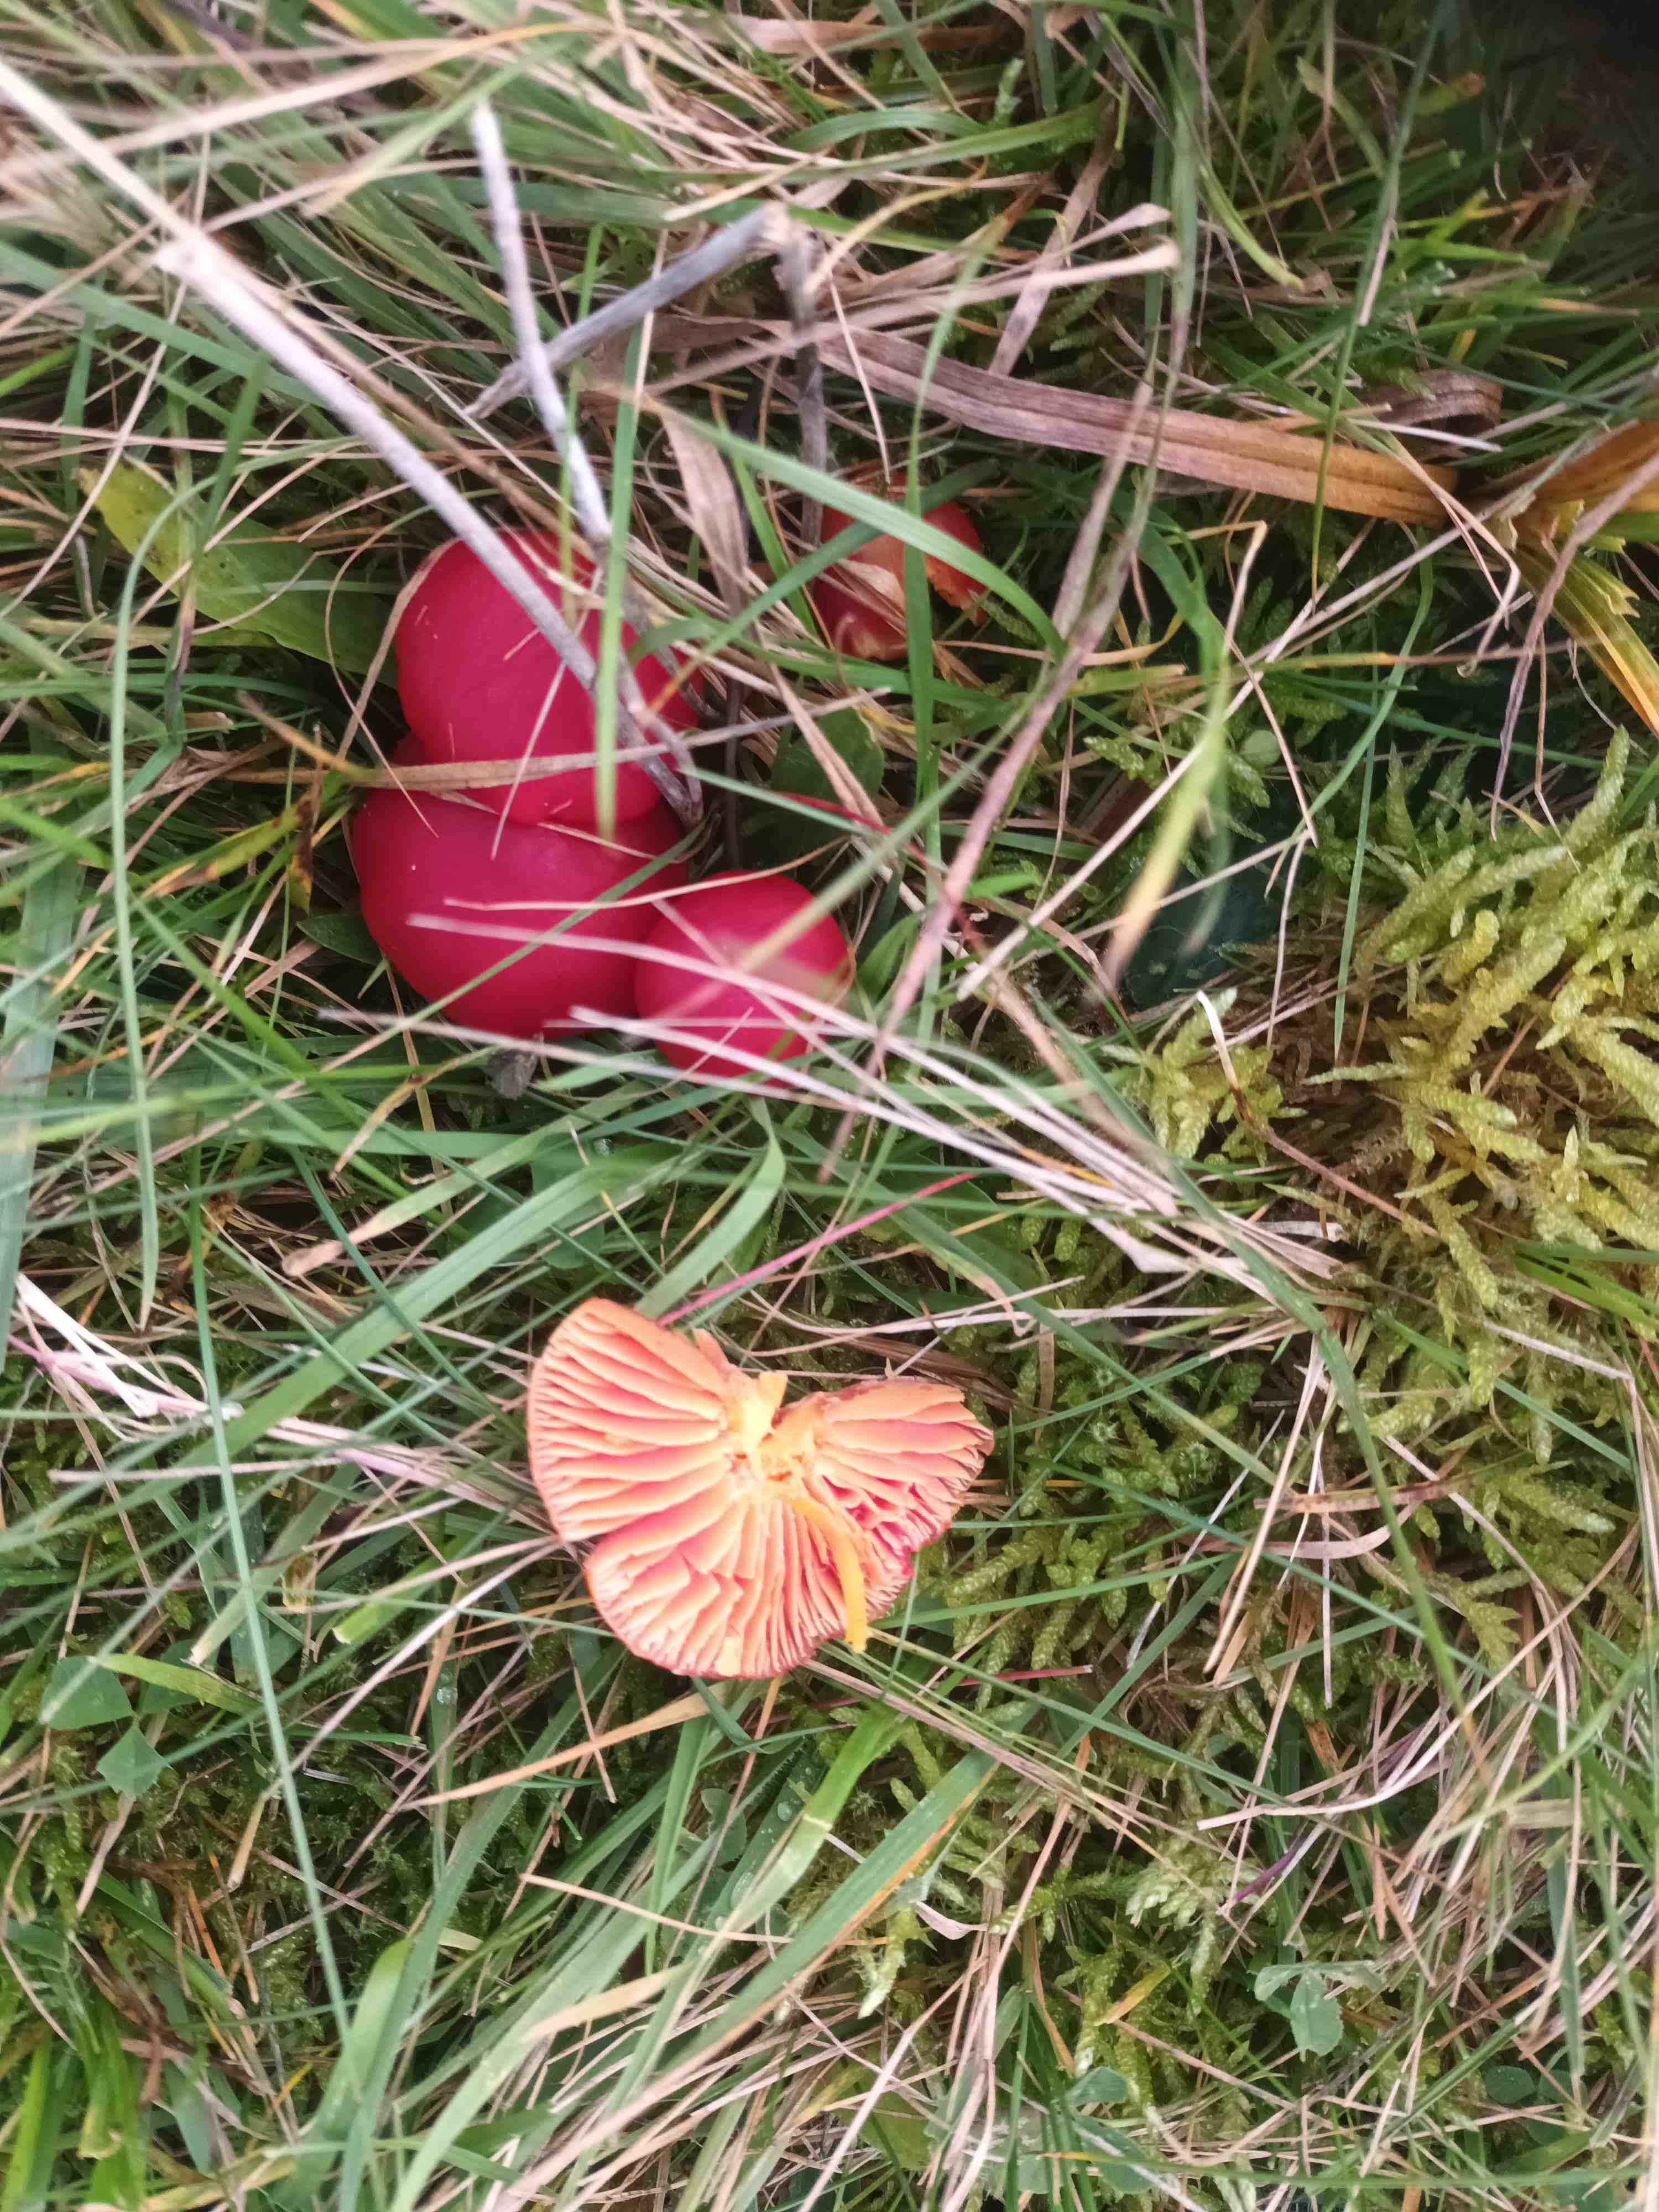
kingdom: Fungi
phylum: Basidiomycota
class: Agaricomycetes
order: Agaricales
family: Hygrophoraceae
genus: Hygrocybe
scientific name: Hygrocybe coccinea
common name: cinnober-vokshat
